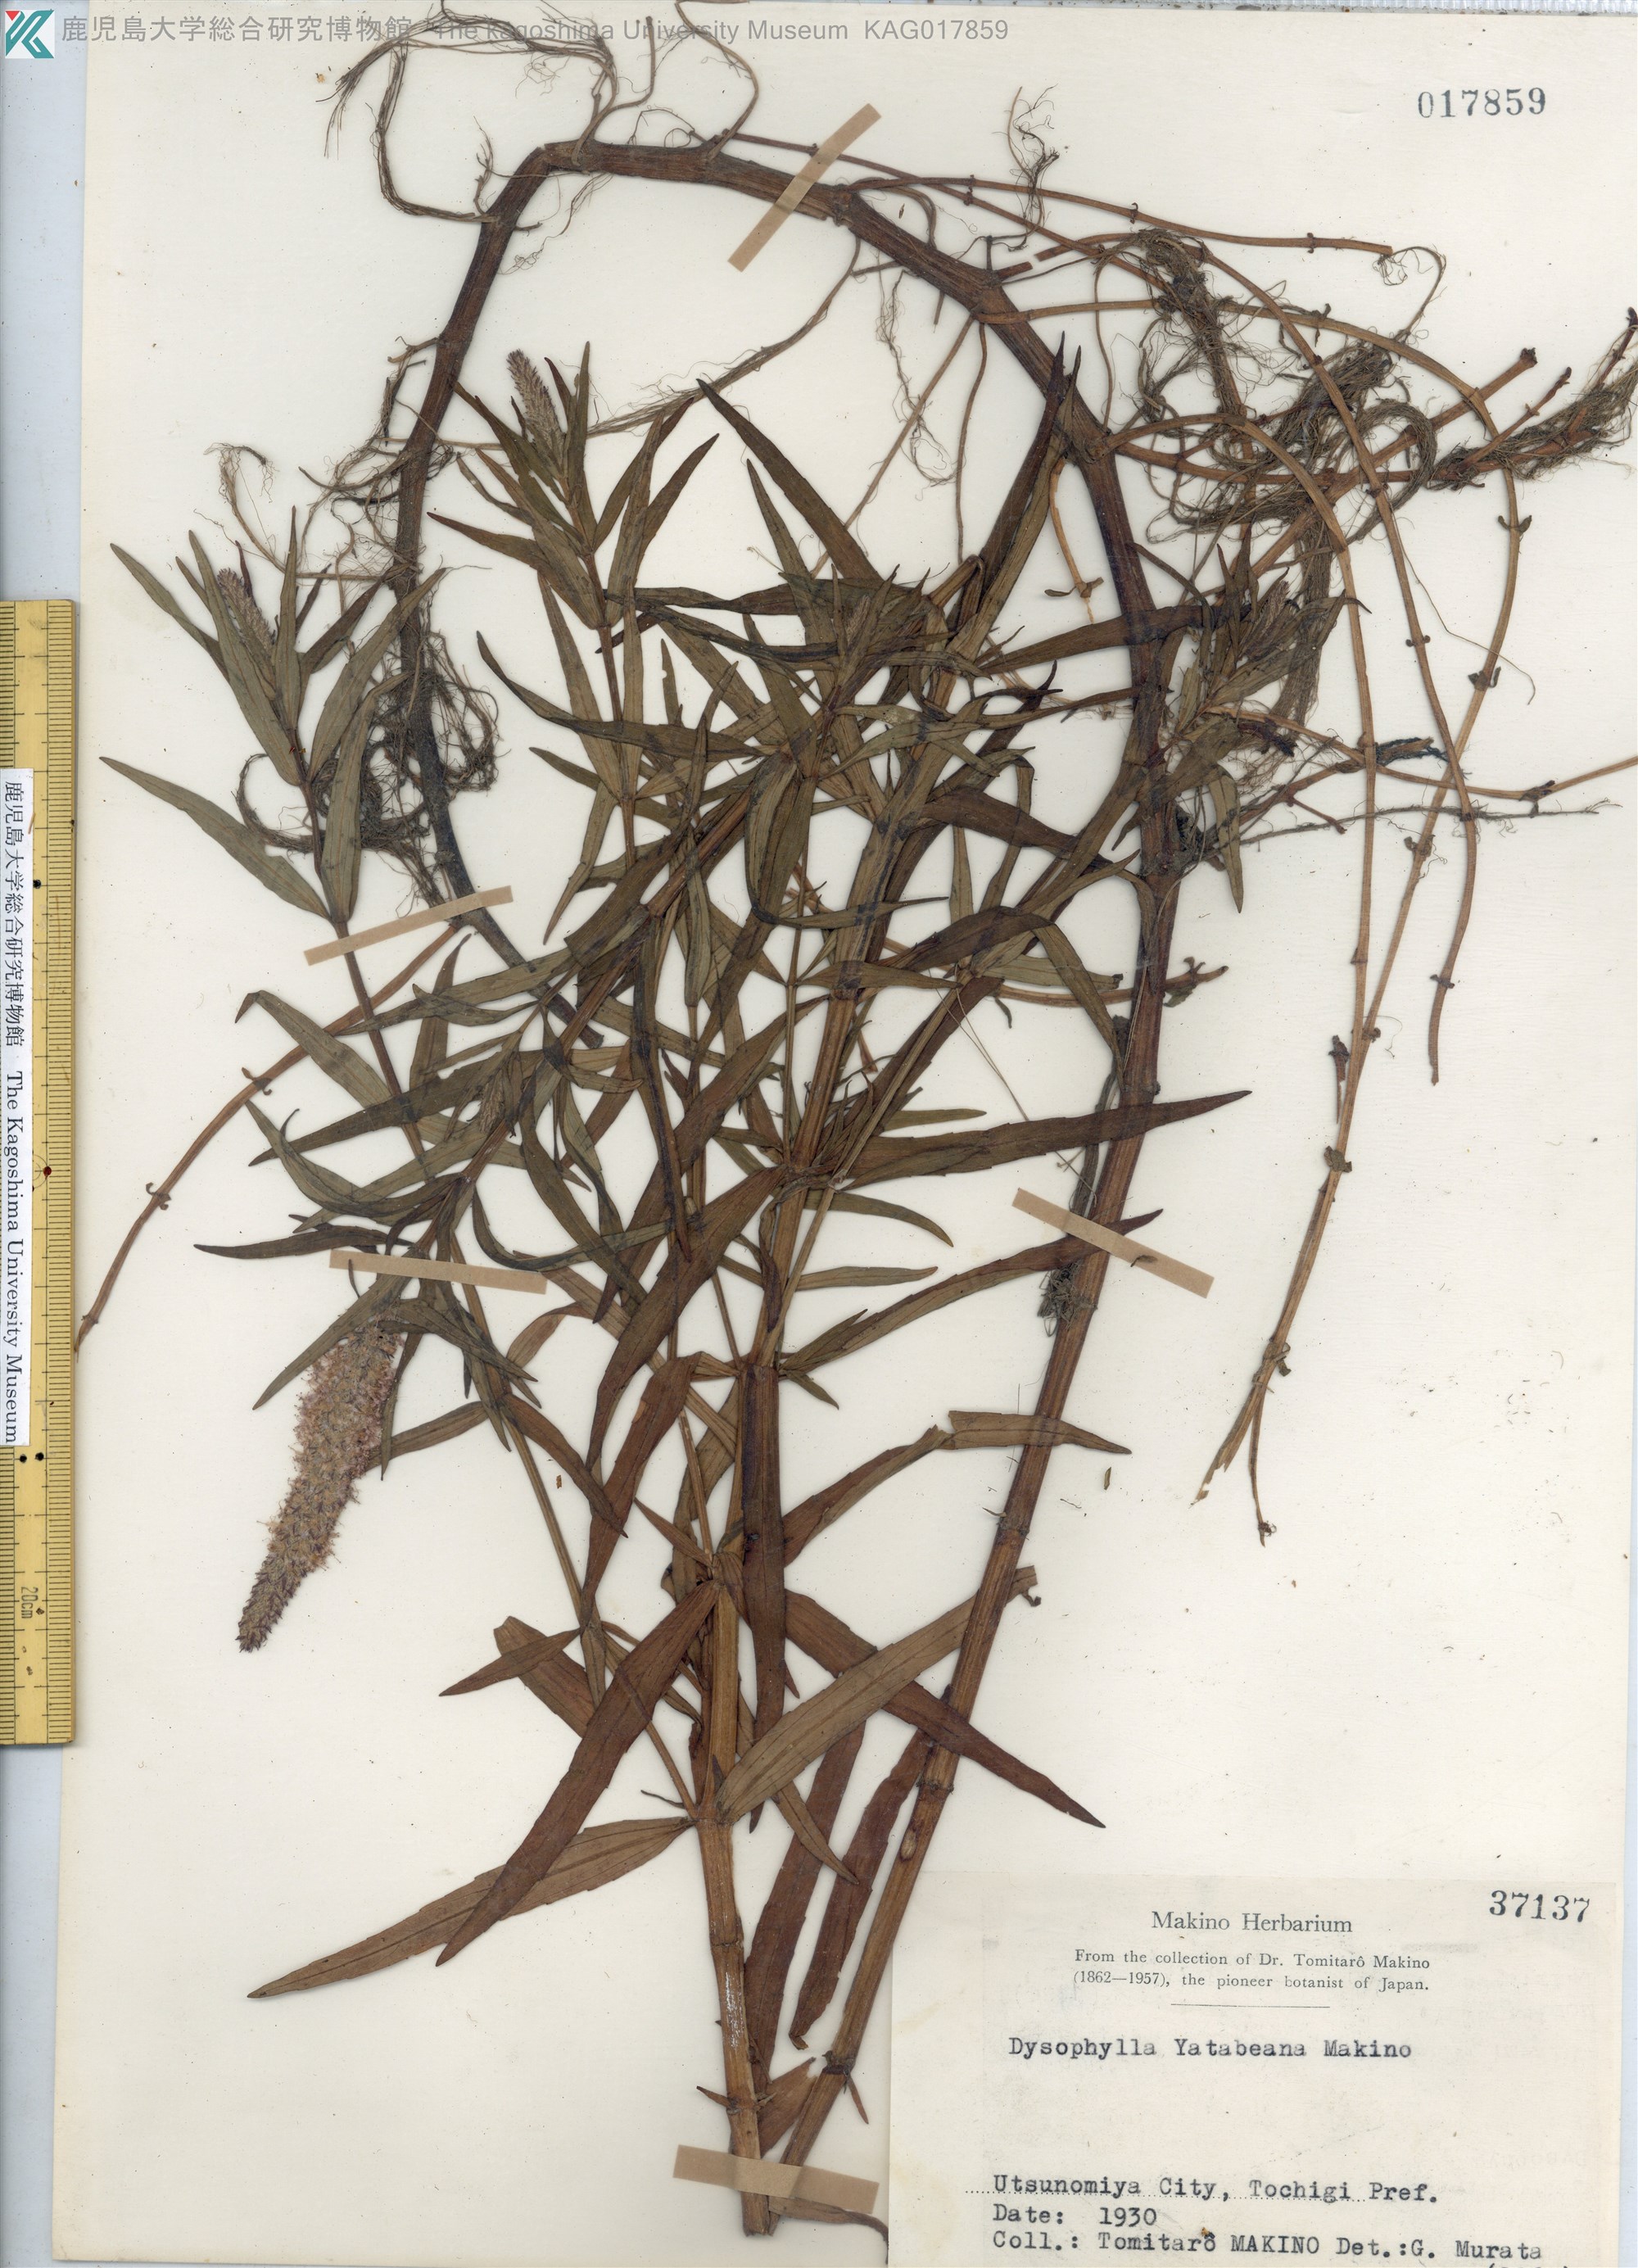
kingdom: Plantae
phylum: Tracheophyta
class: Magnoliopsida
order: Lamiales
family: Lamiaceae
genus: Pogostemon
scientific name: Pogostemon yatabeanus
